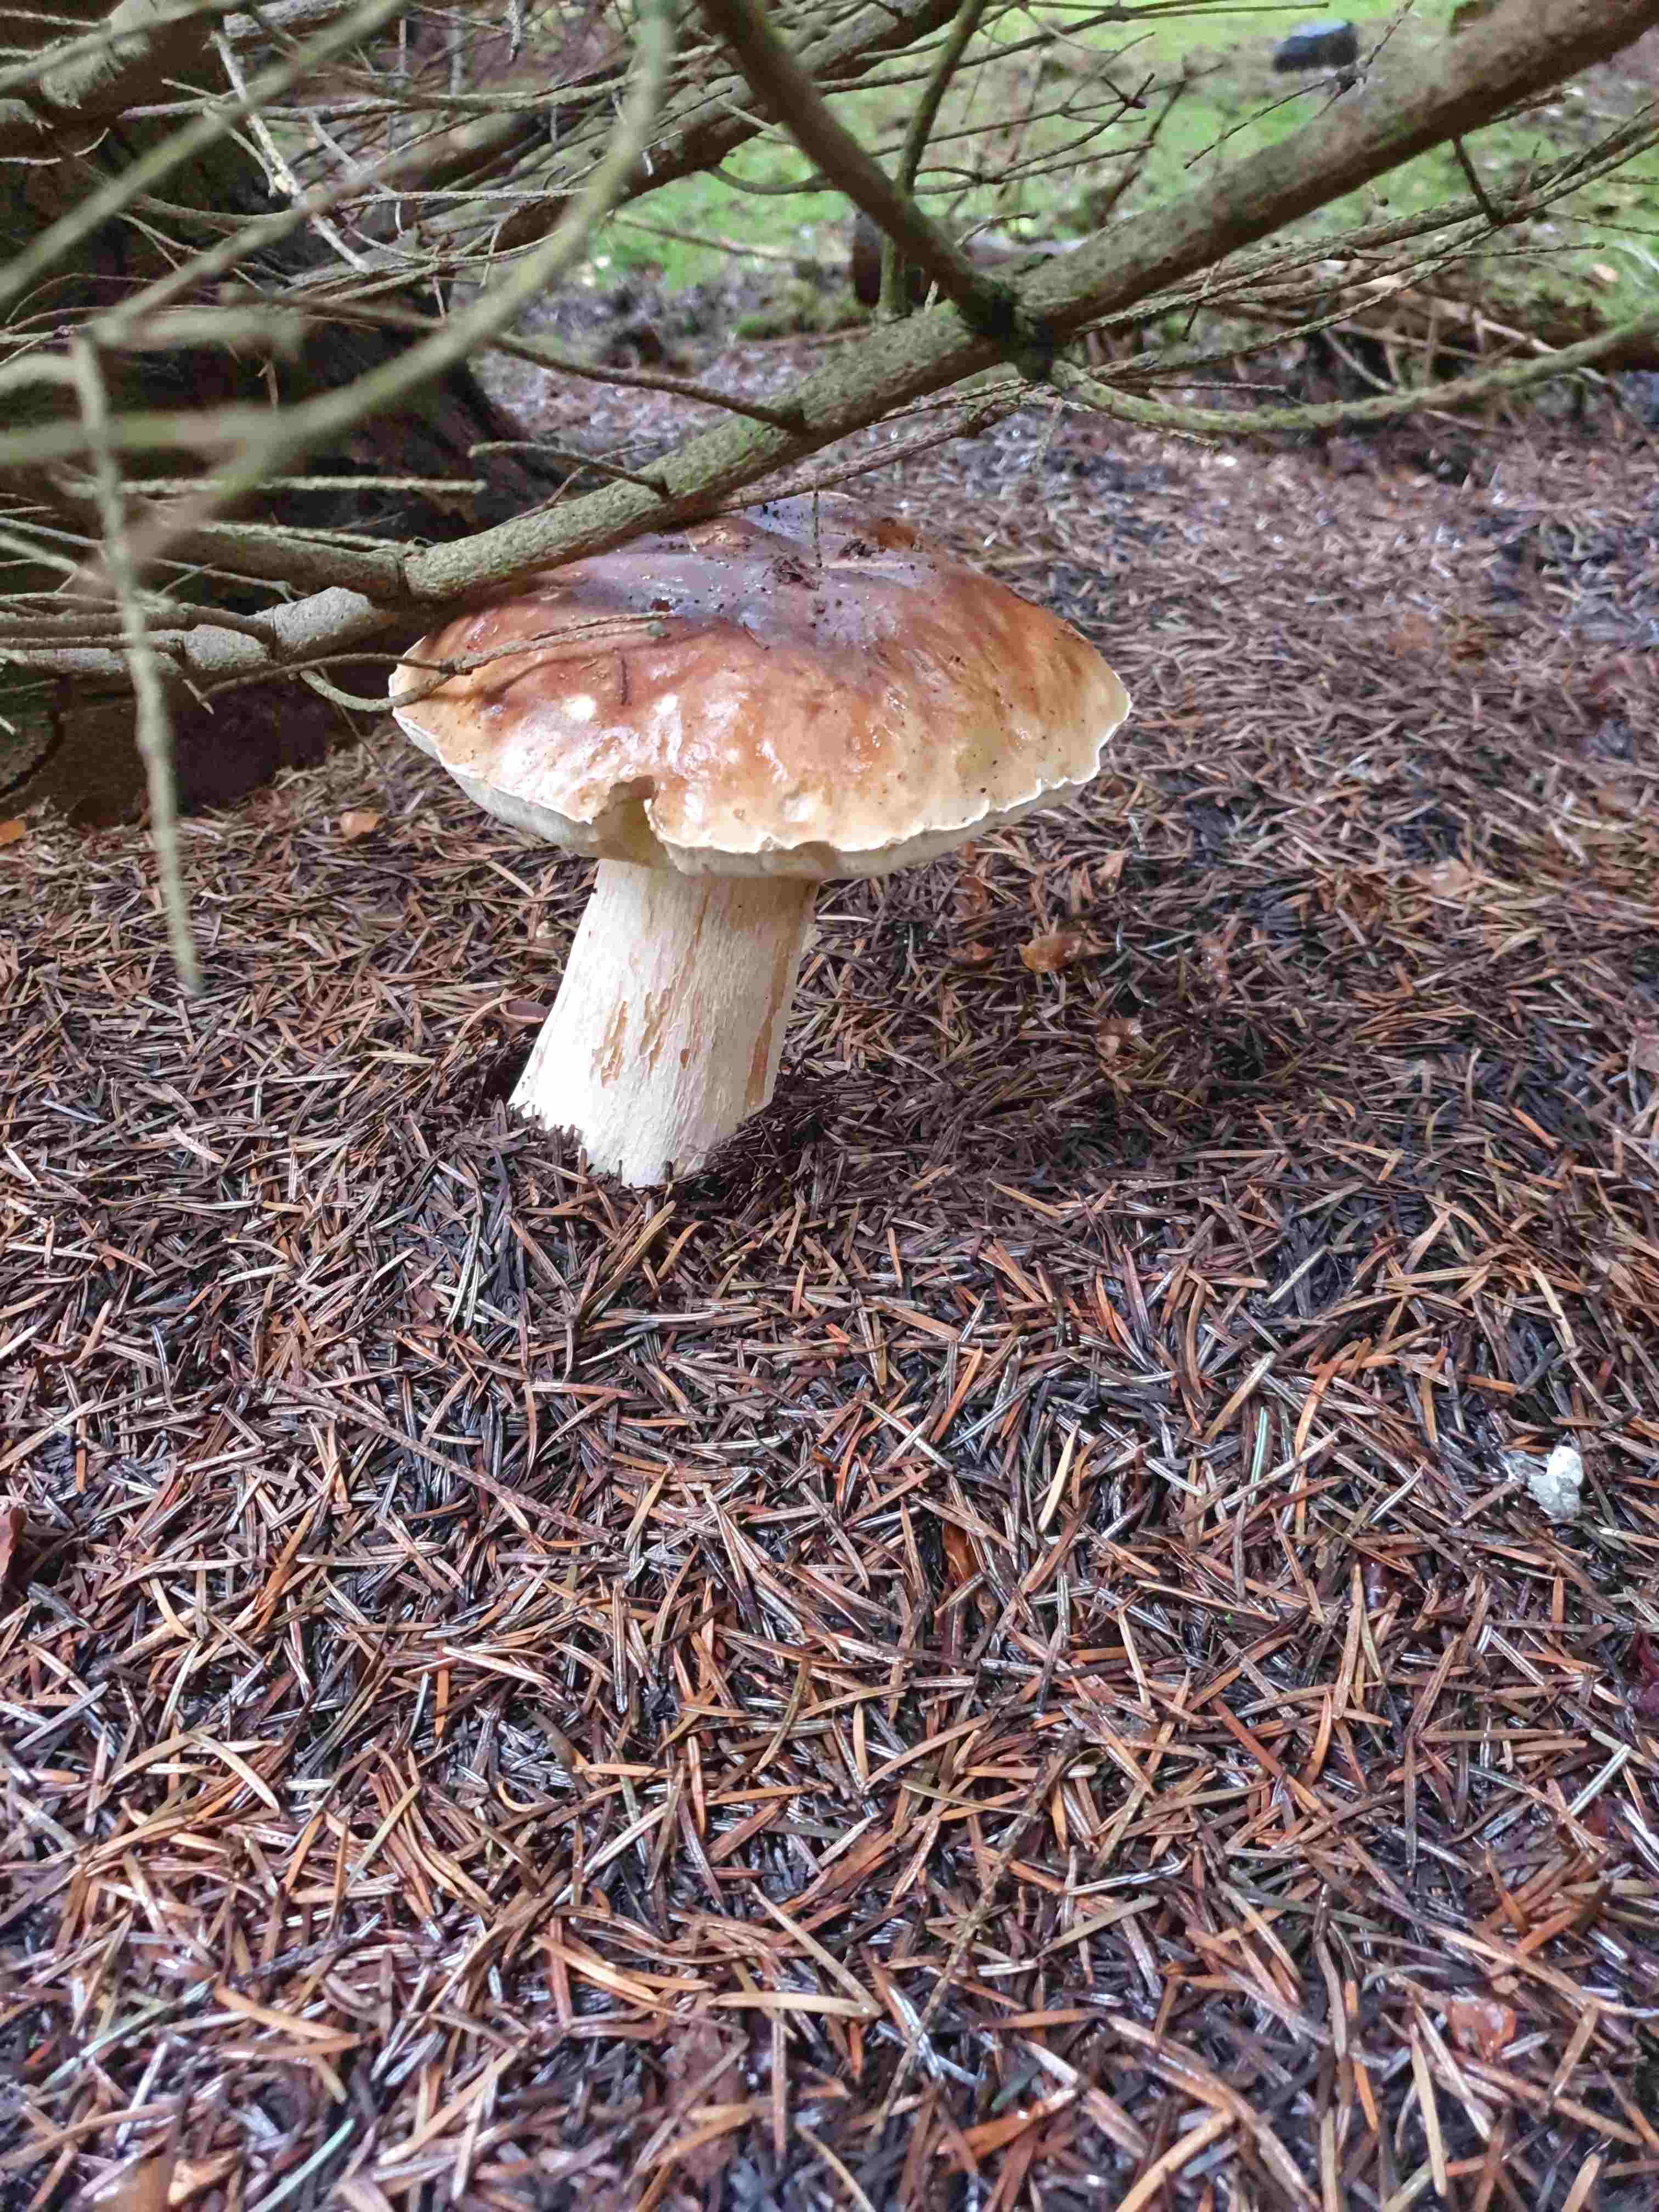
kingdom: Fungi
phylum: Basidiomycota
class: Agaricomycetes
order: Boletales
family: Boletaceae
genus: Boletus
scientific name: Boletus edulis
